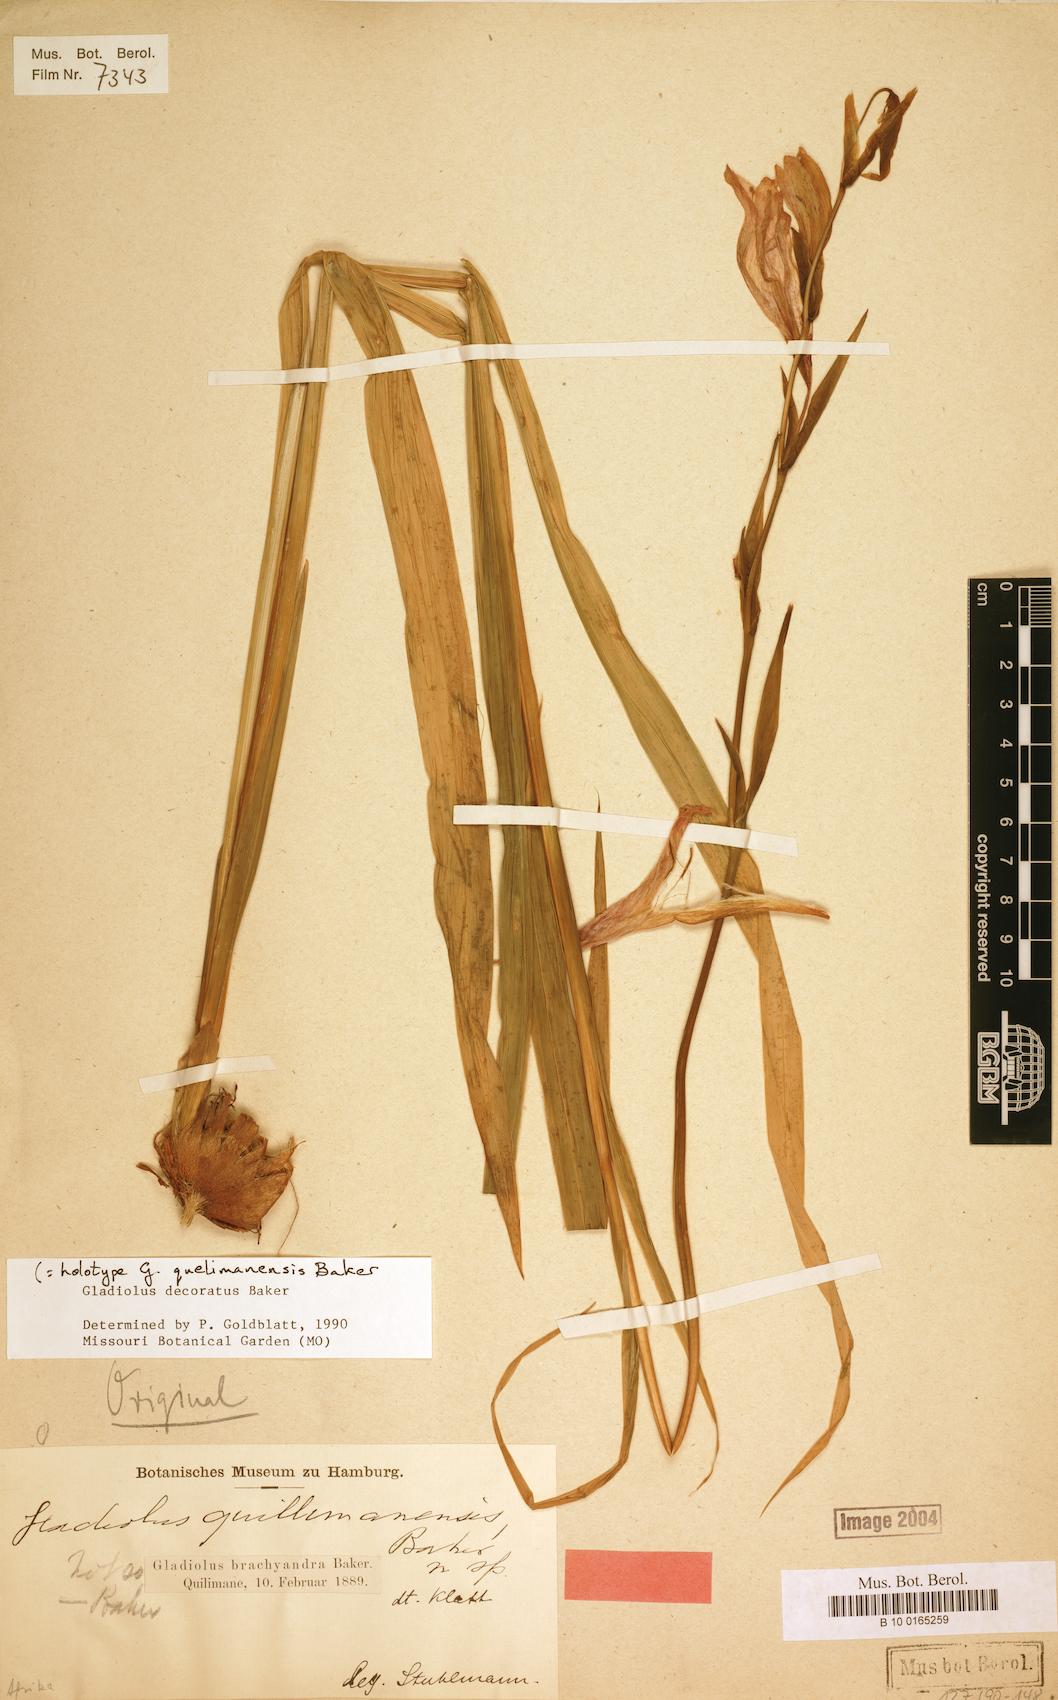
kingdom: Plantae
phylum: Tracheophyta
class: Liliopsida
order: Asparagales
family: Iridaceae
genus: Gladiolus
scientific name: Gladiolus decoratus
